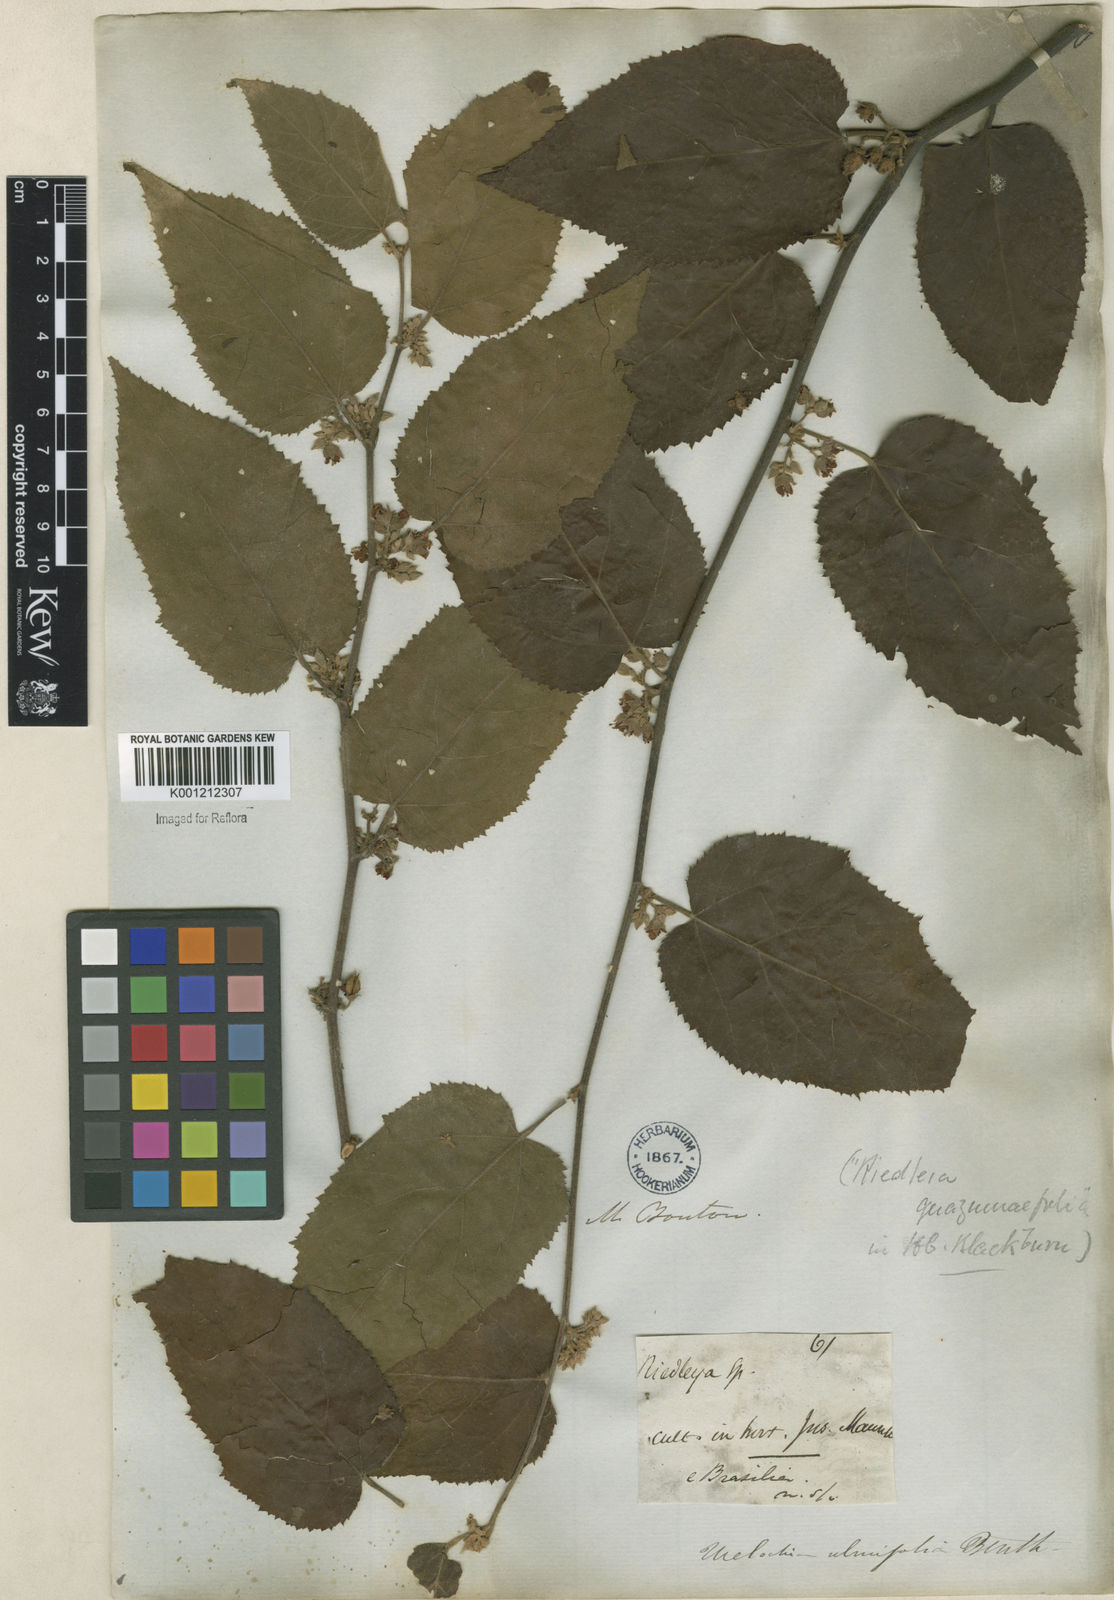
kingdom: Plantae
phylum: Tracheophyta
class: Magnoliopsida
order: Malvales
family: Malvaceae
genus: Melochia
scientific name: Melochia ulmifolia
